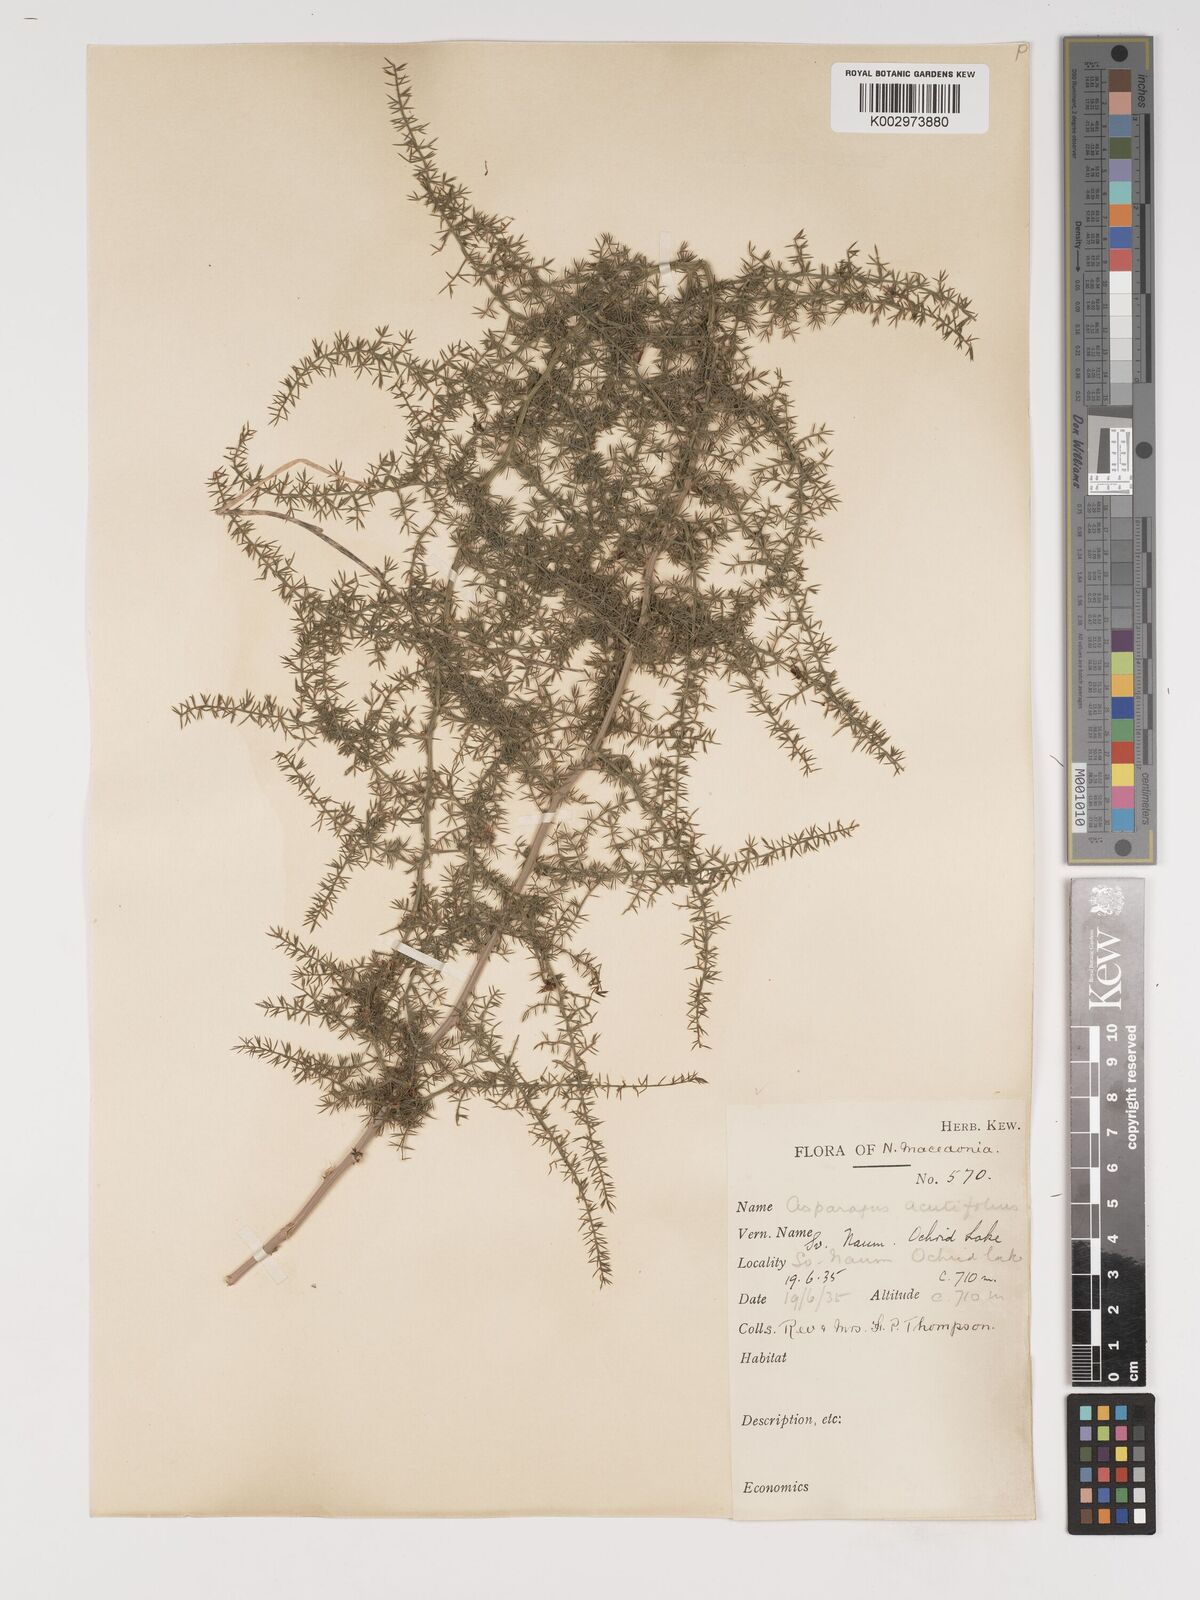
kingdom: Plantae
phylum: Tracheophyta
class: Liliopsida
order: Asparagales
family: Asparagaceae
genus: Asparagus
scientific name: Asparagus acutifolius
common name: Wild asparagus
